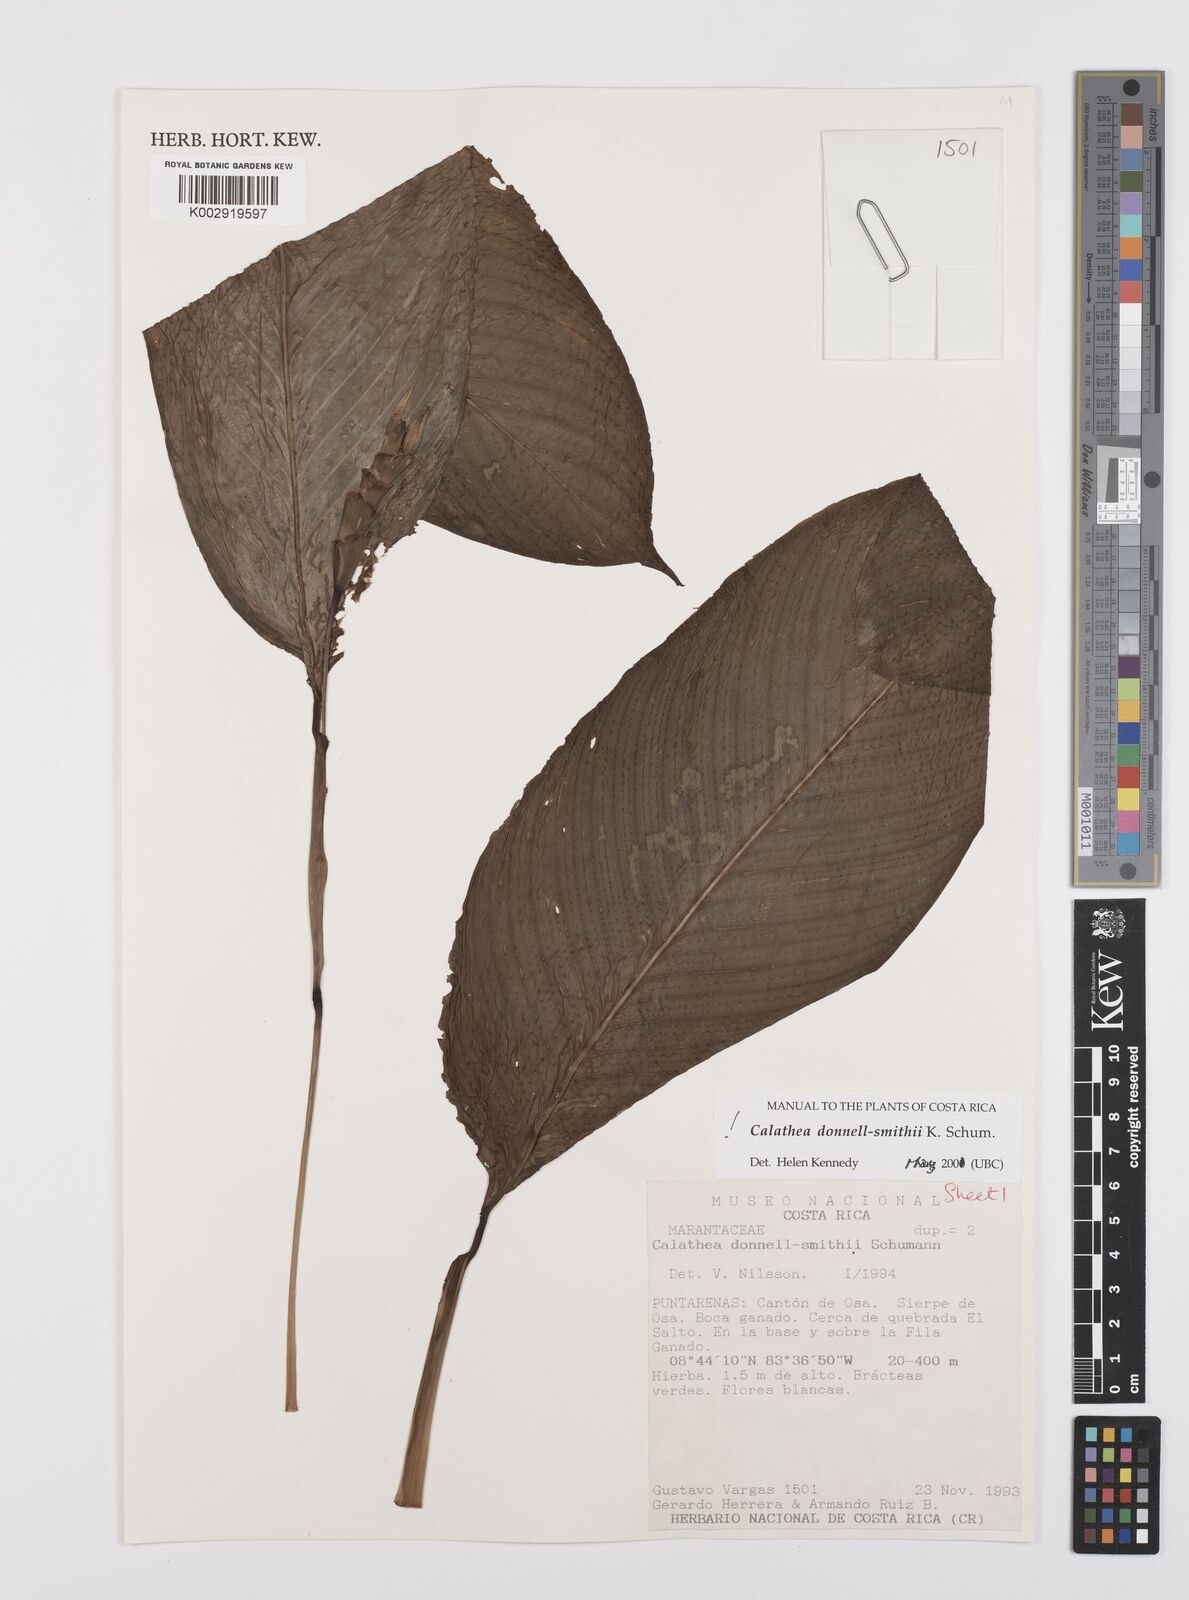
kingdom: Plantae
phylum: Tracheophyta
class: Liliopsida
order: Zingiberales
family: Marantaceae
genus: Goeppertia
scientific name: Goeppertia donnell-smithii
